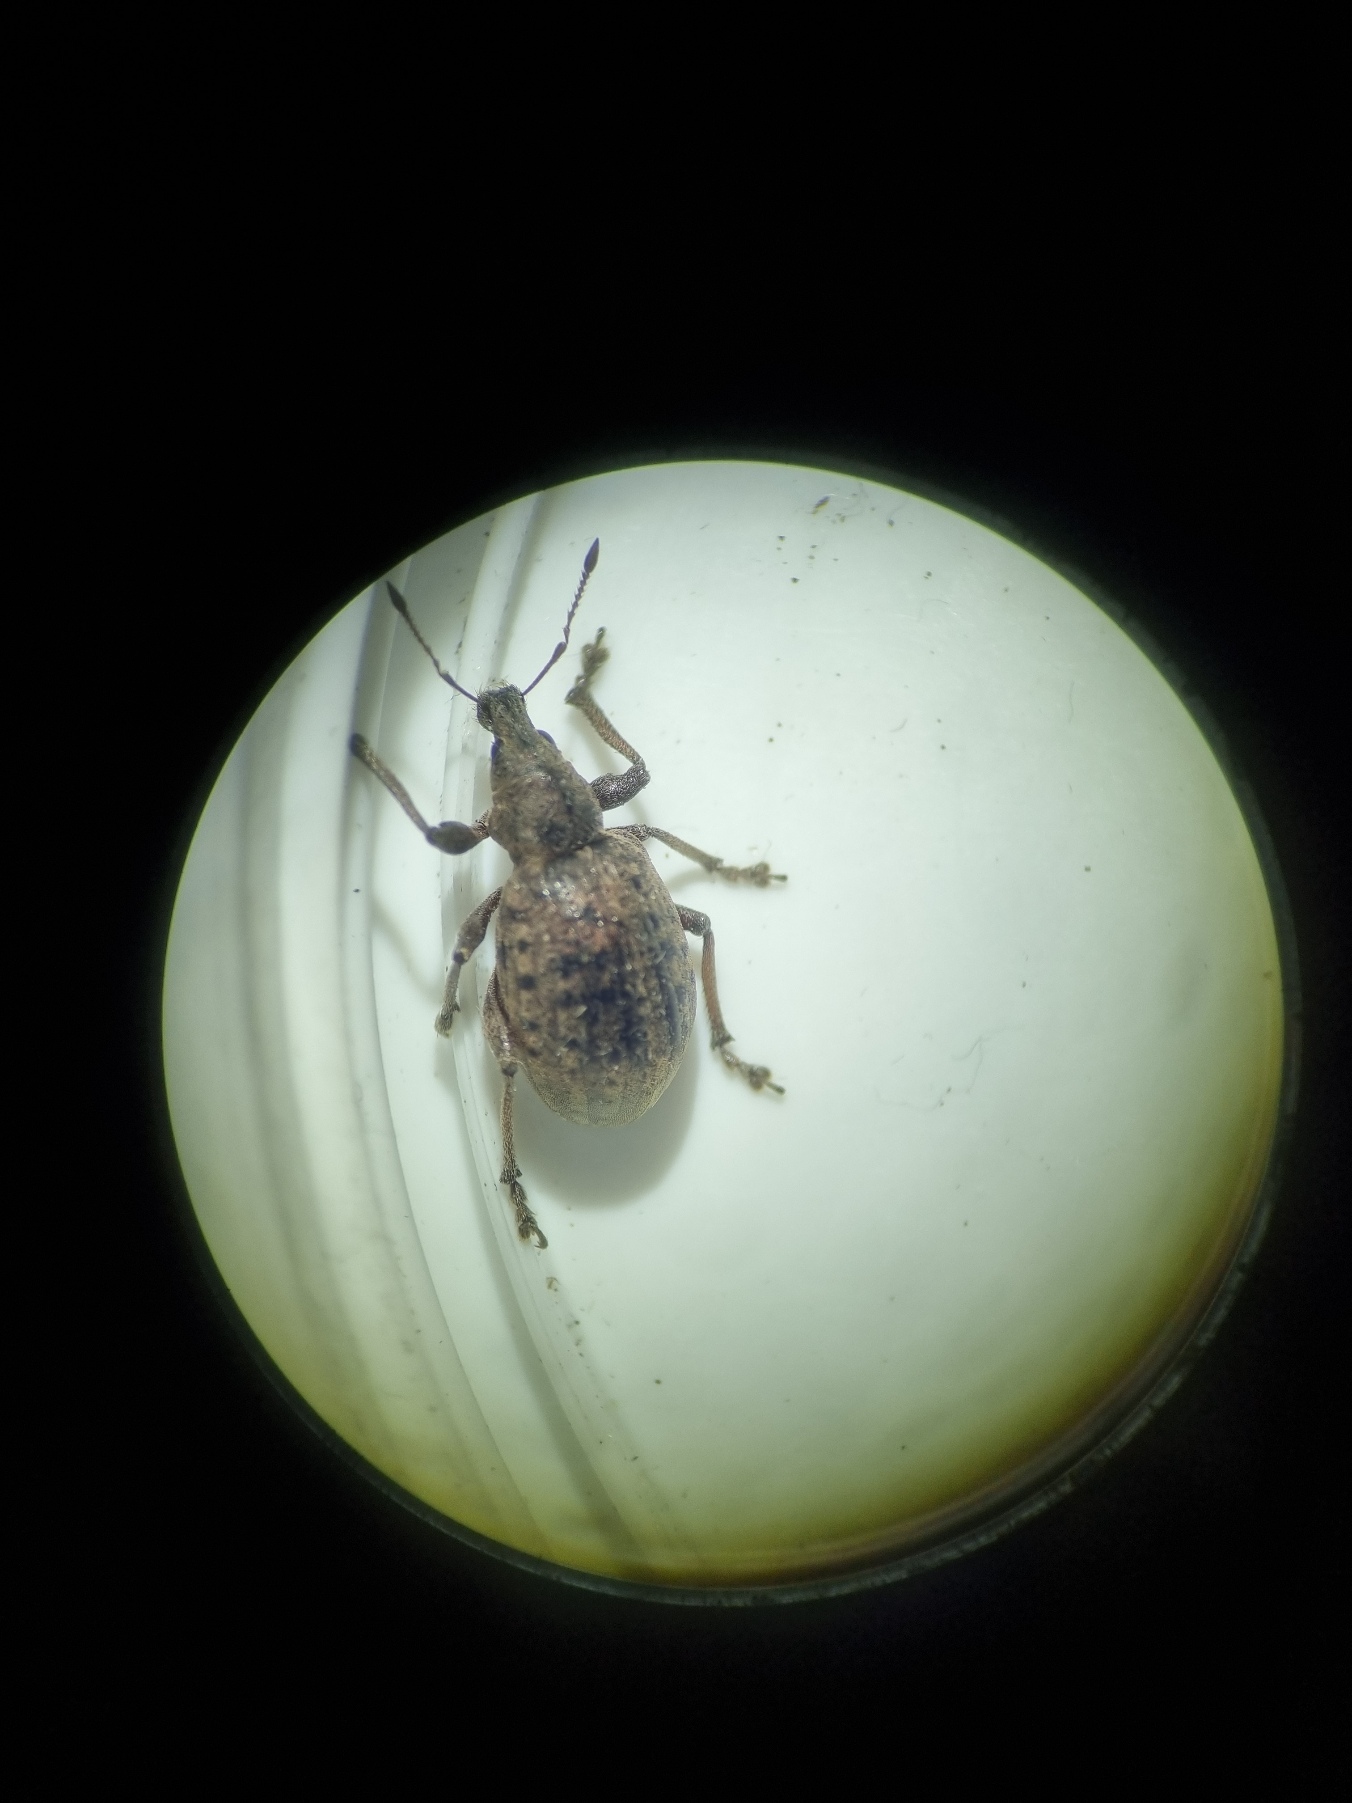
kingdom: Animalia
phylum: Arthropoda
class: Insecta
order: Coleoptera
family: Curculionidae
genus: Liophloeus
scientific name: Liophloeus tessulatus
